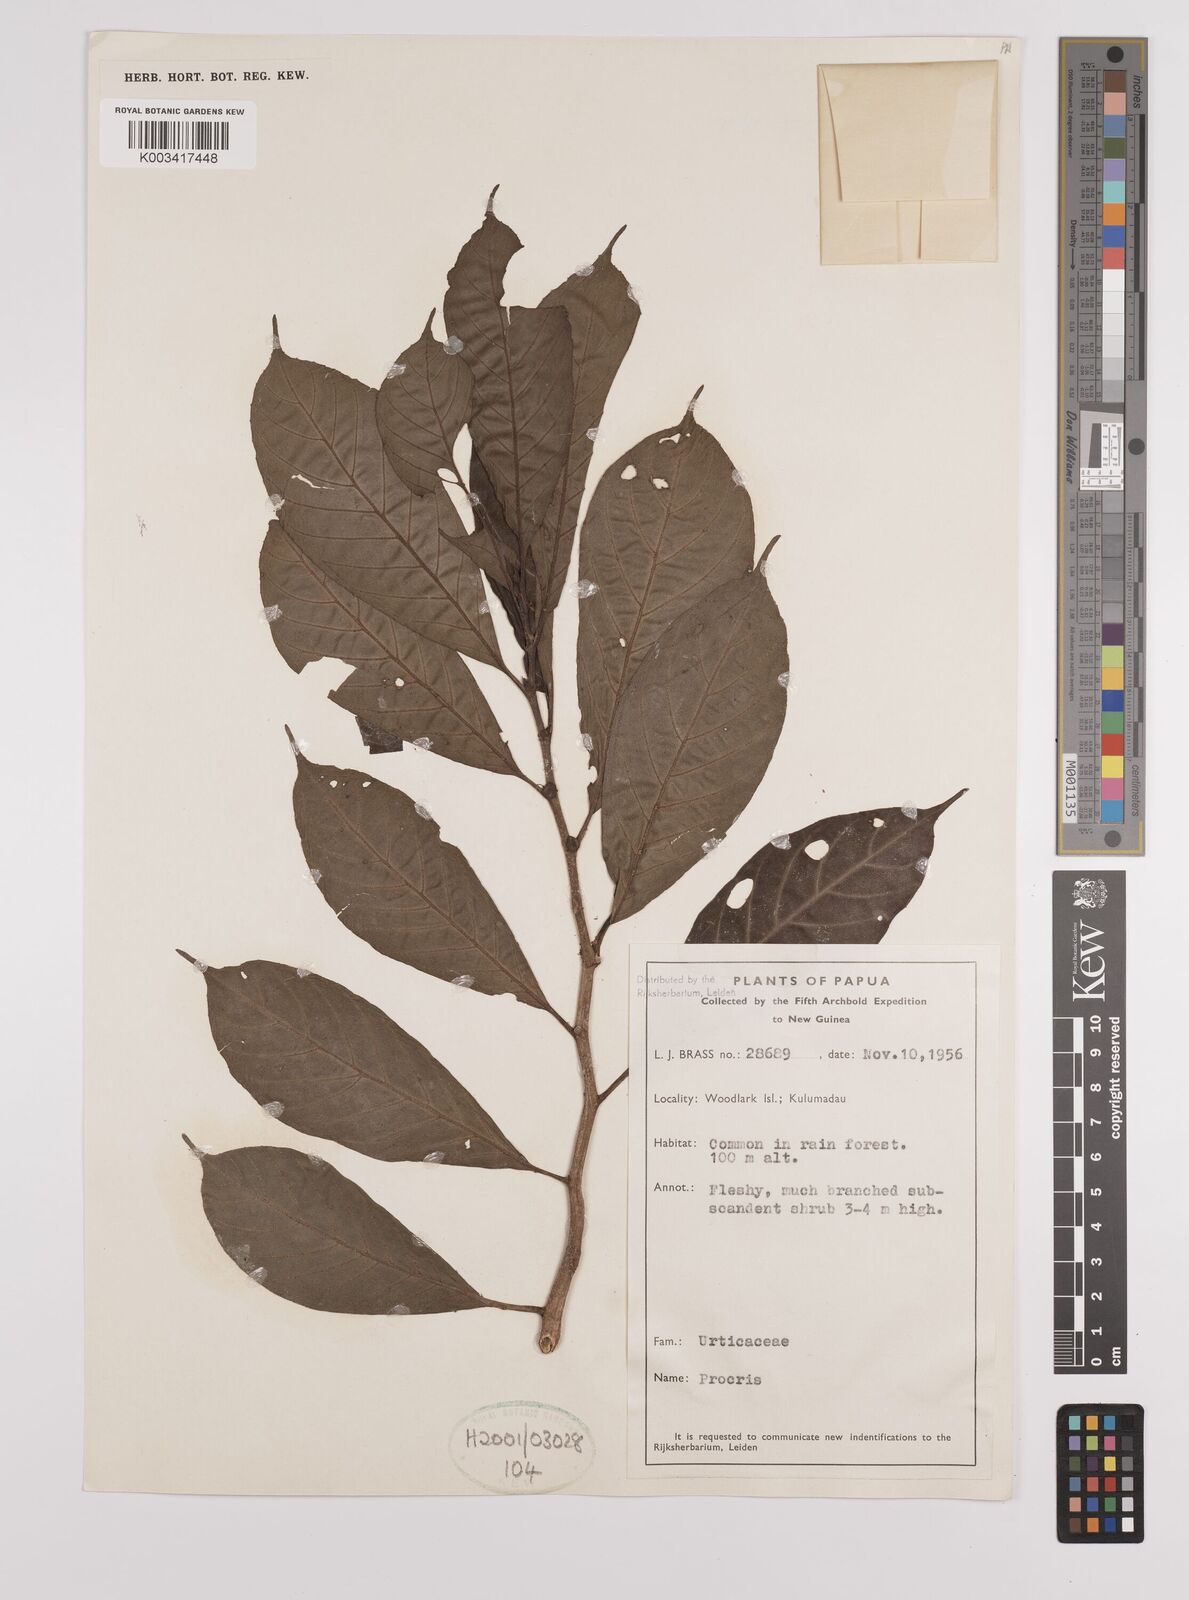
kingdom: Plantae
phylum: Tracheophyta
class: Magnoliopsida
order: Rosales
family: Urticaceae
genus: Procris
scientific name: Procris
